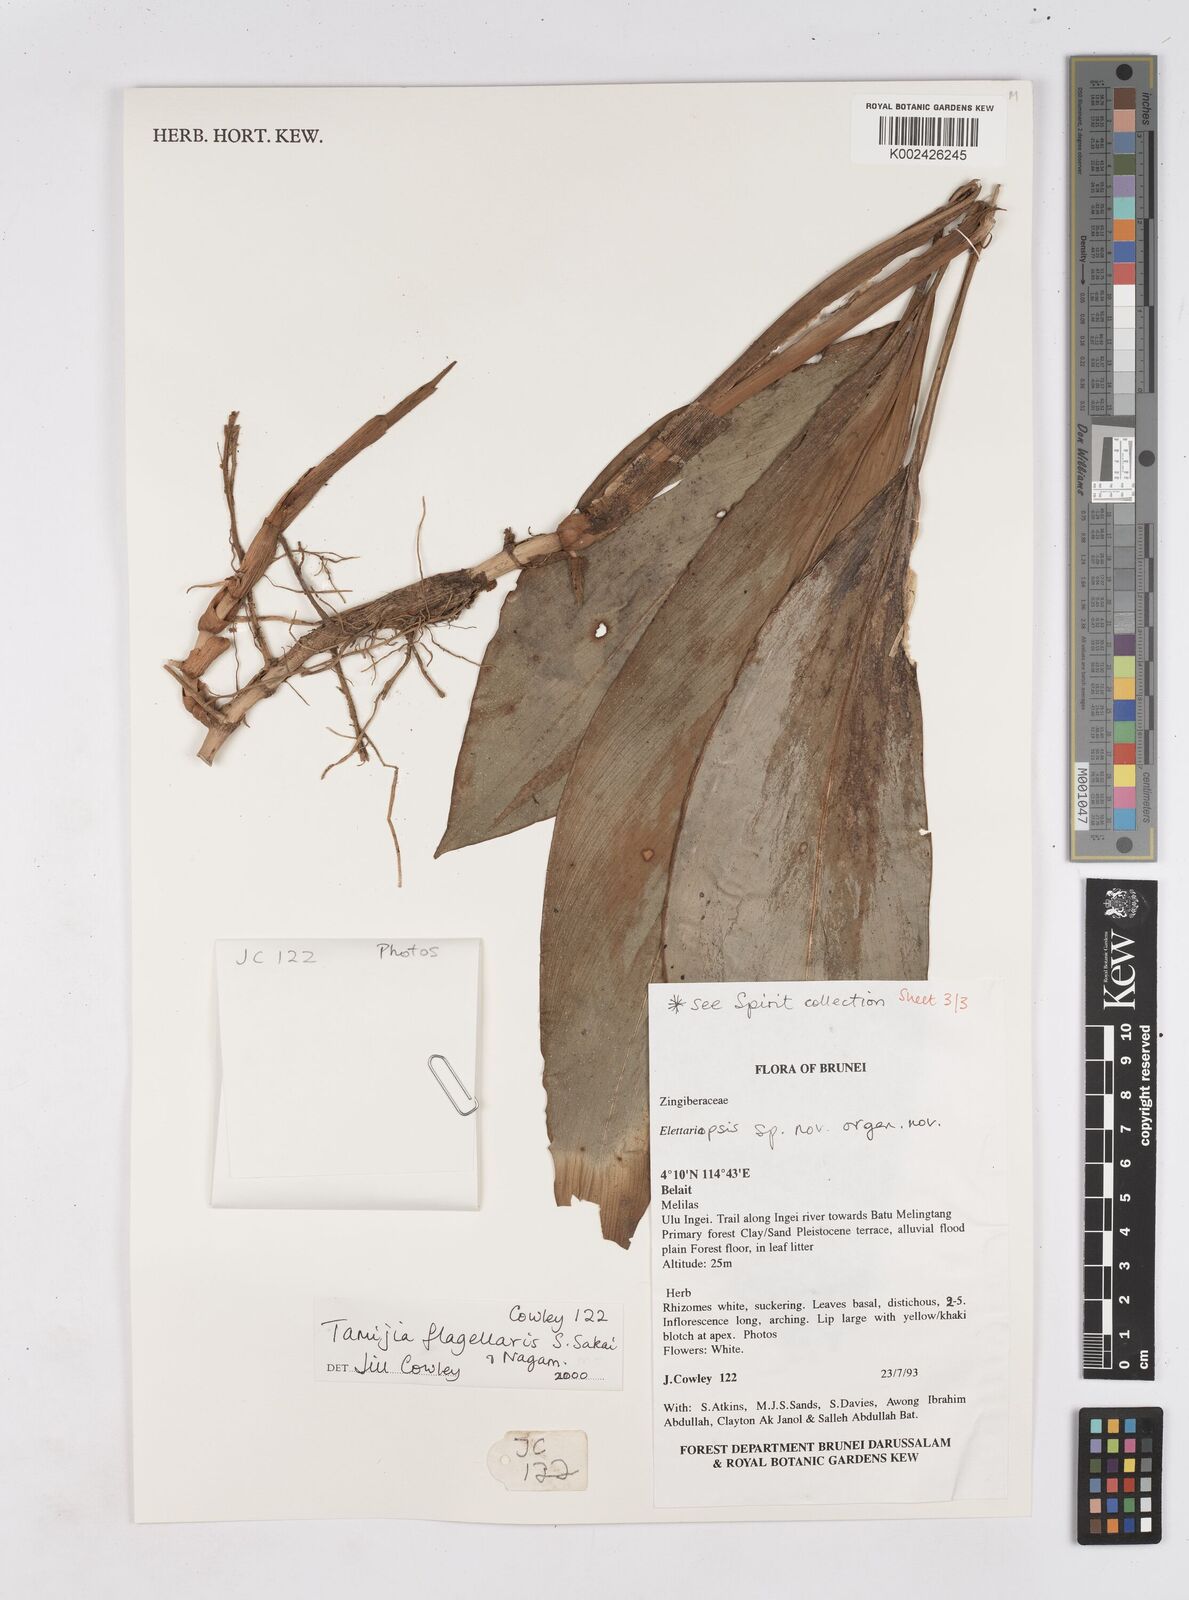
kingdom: Plantae
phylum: Tracheophyta
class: Liliopsida
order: Zingiberales
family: Zingiberaceae
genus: Tamijia
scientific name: Tamijia flagellaris
